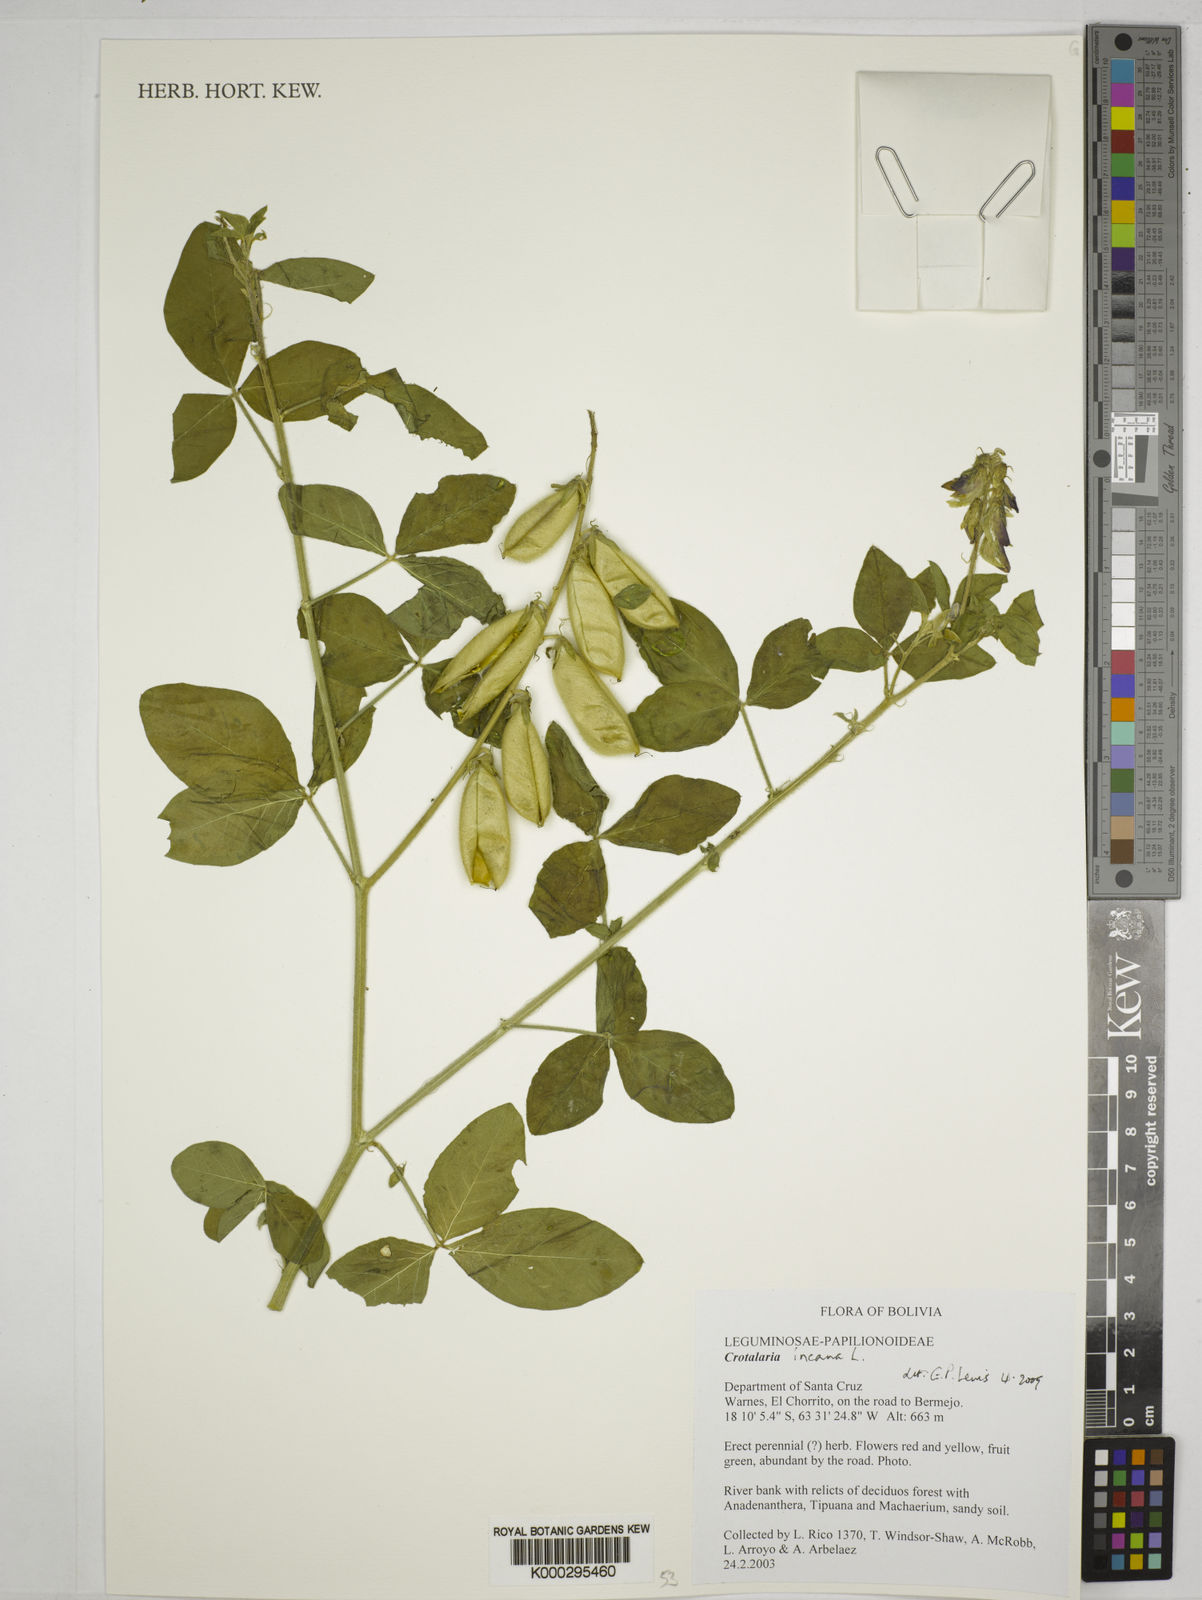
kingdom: Plantae
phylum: Tracheophyta
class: Magnoliopsida
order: Fabales
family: Fabaceae
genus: Crotalaria
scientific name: Crotalaria
